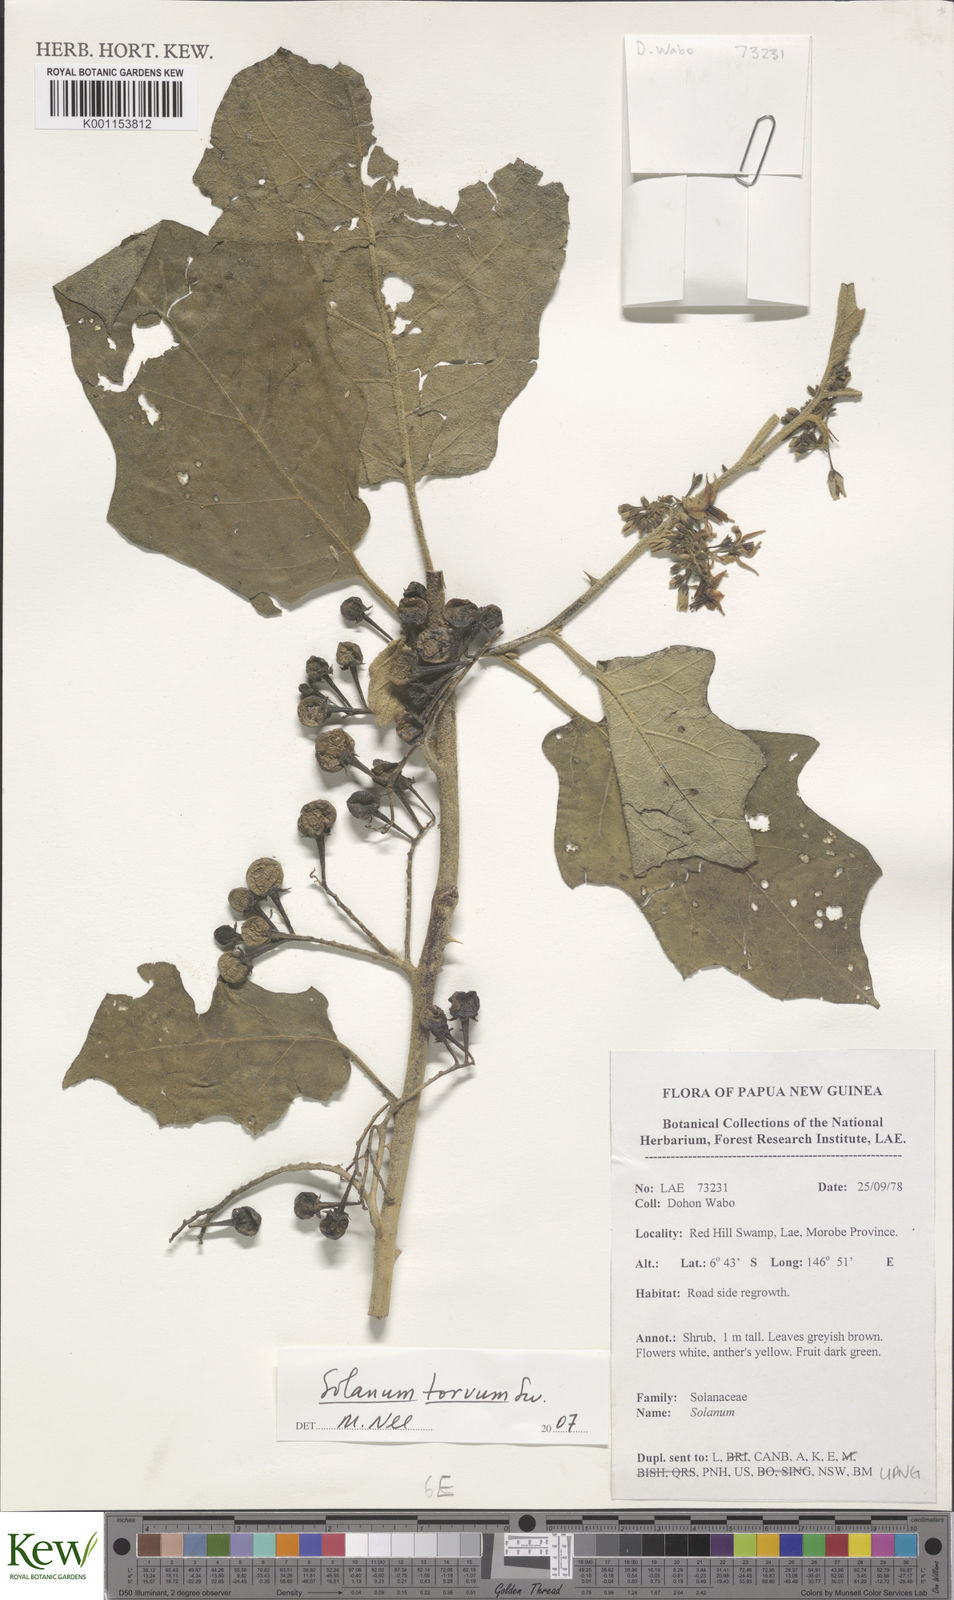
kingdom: Plantae
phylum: Tracheophyta
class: Magnoliopsida
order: Solanales
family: Solanaceae
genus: Solanum
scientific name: Solanum torvum
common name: Turkey berry
